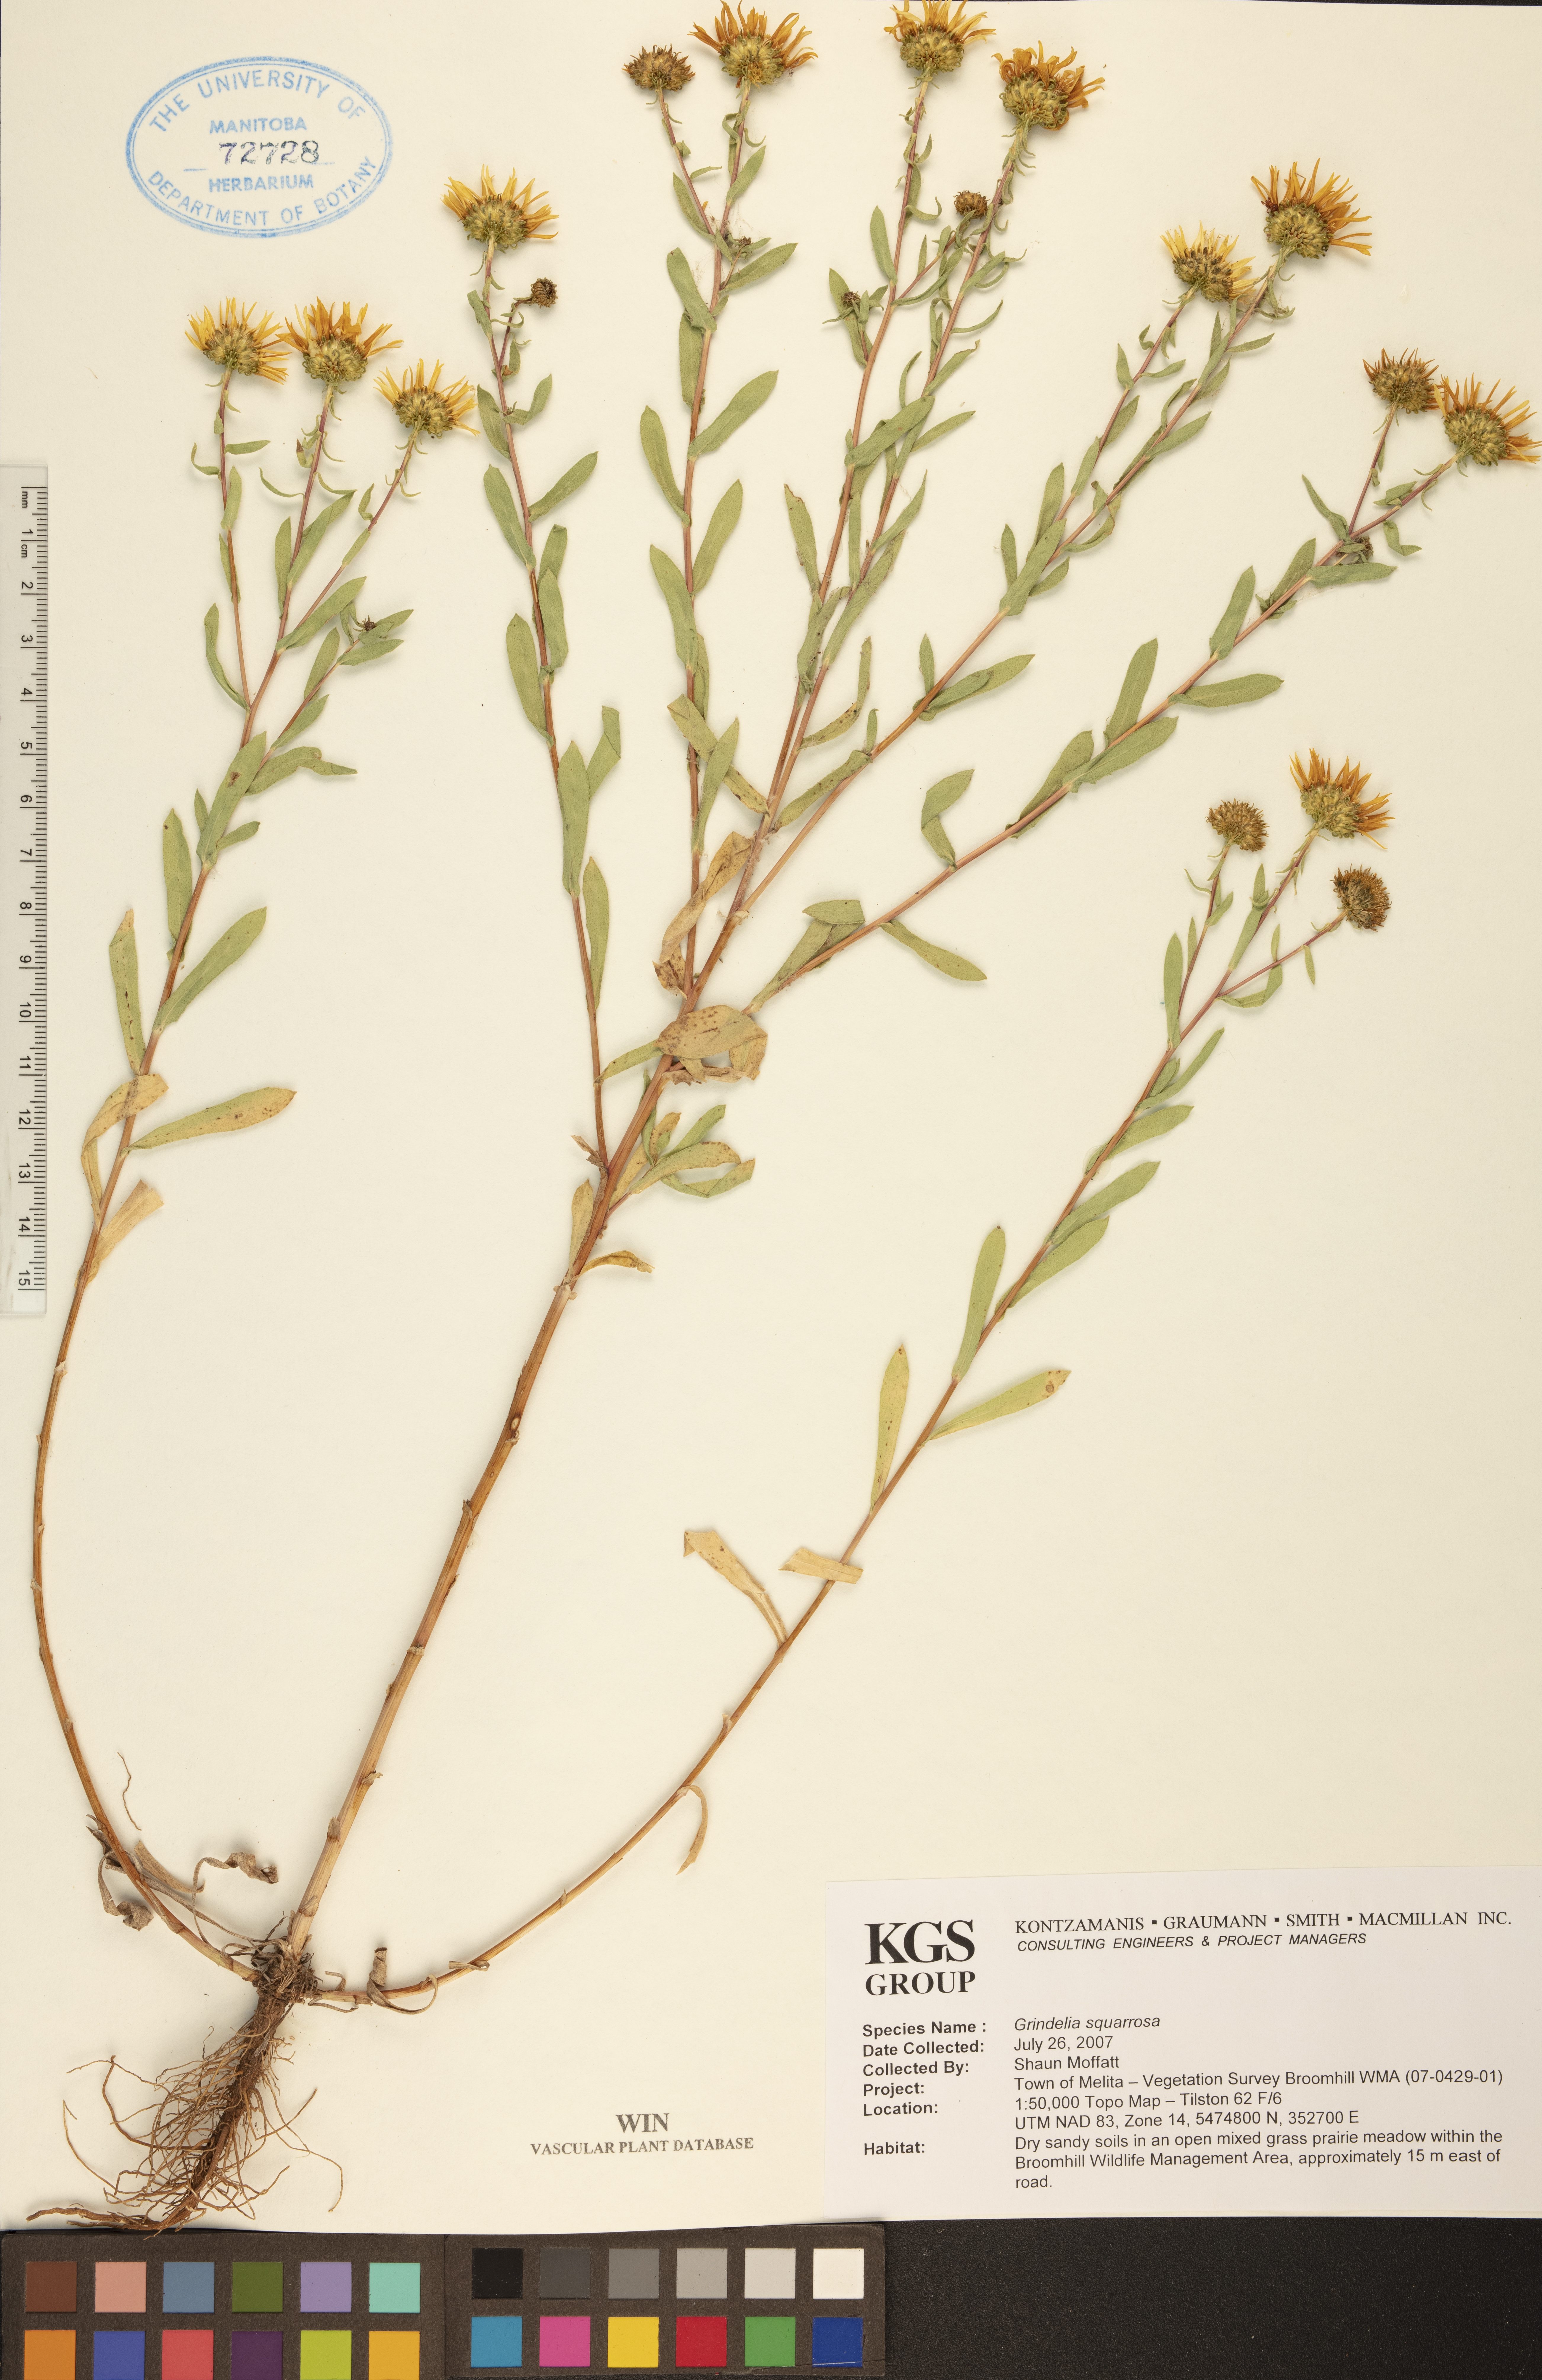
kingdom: Plantae
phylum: Tracheophyta
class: Magnoliopsida
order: Asterales
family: Asteraceae
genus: Grindelia
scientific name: Grindelia squarrosa
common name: Curly-cup gumweed
